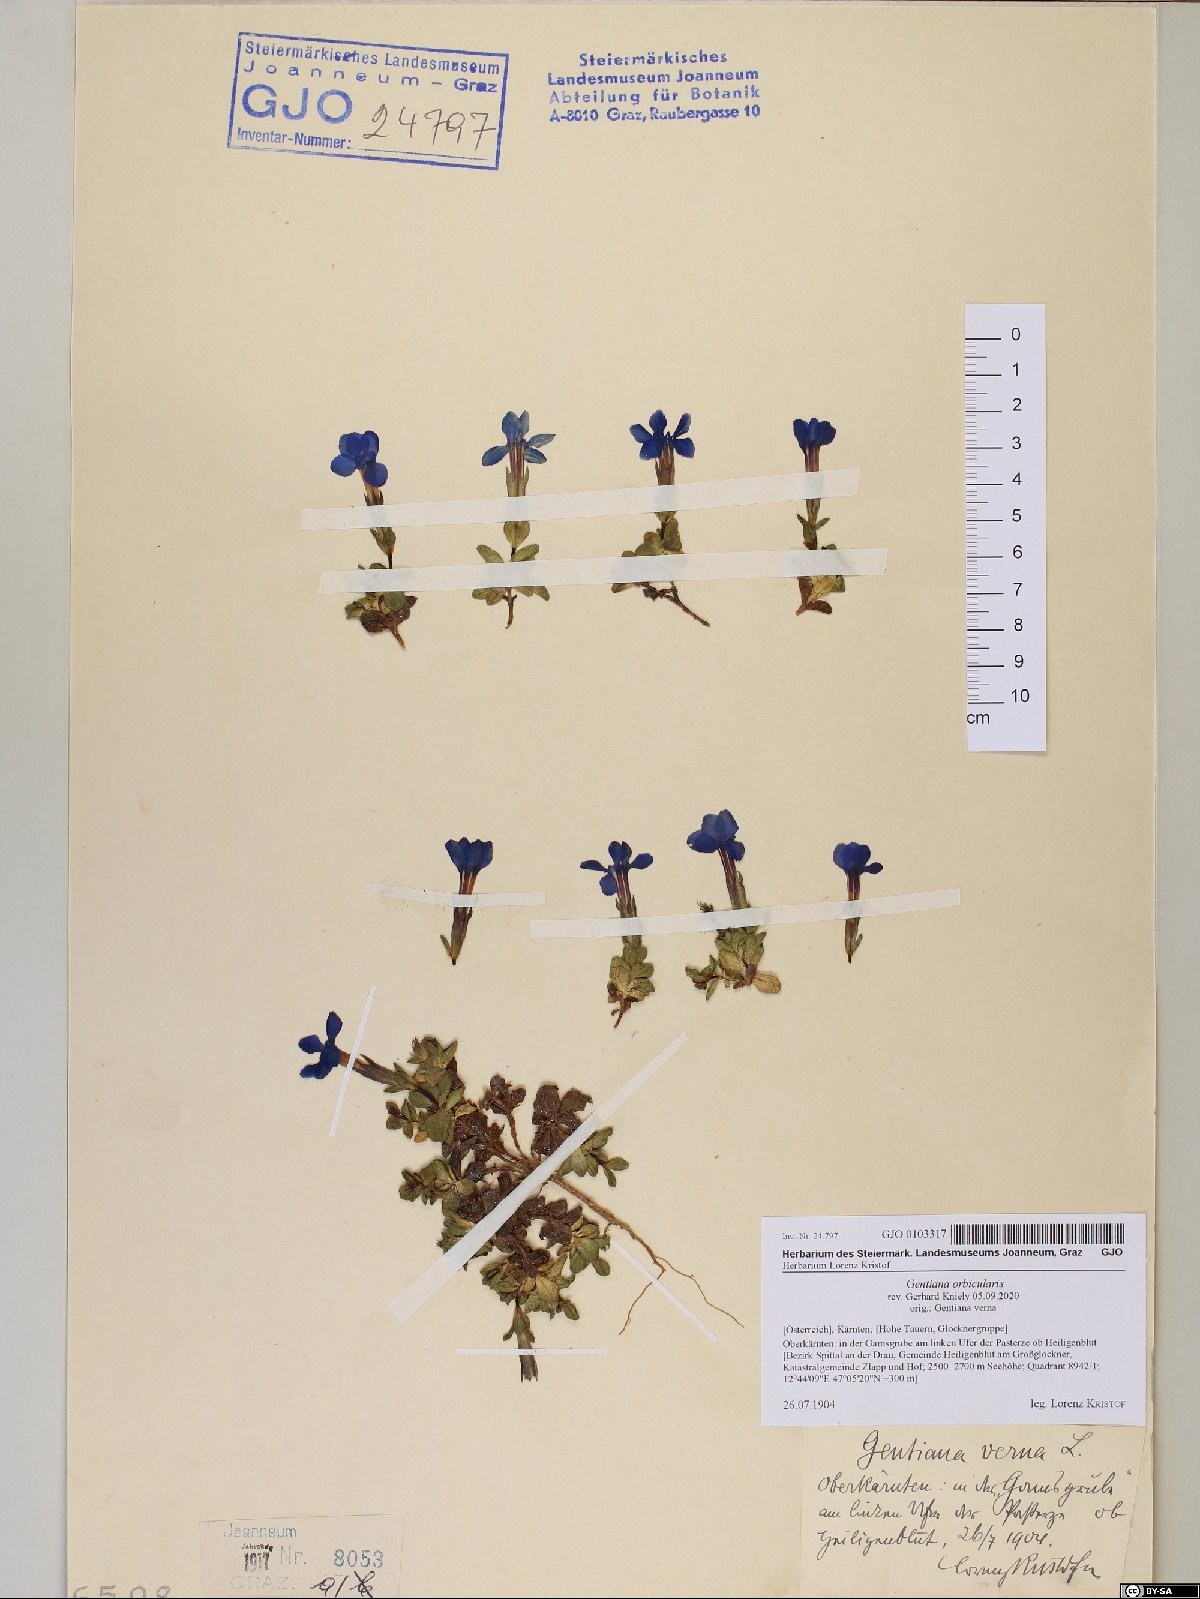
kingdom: Plantae
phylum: Tracheophyta
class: Magnoliopsida
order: Gentianales
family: Gentianaceae
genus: Gentiana
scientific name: Gentiana orbicularis
